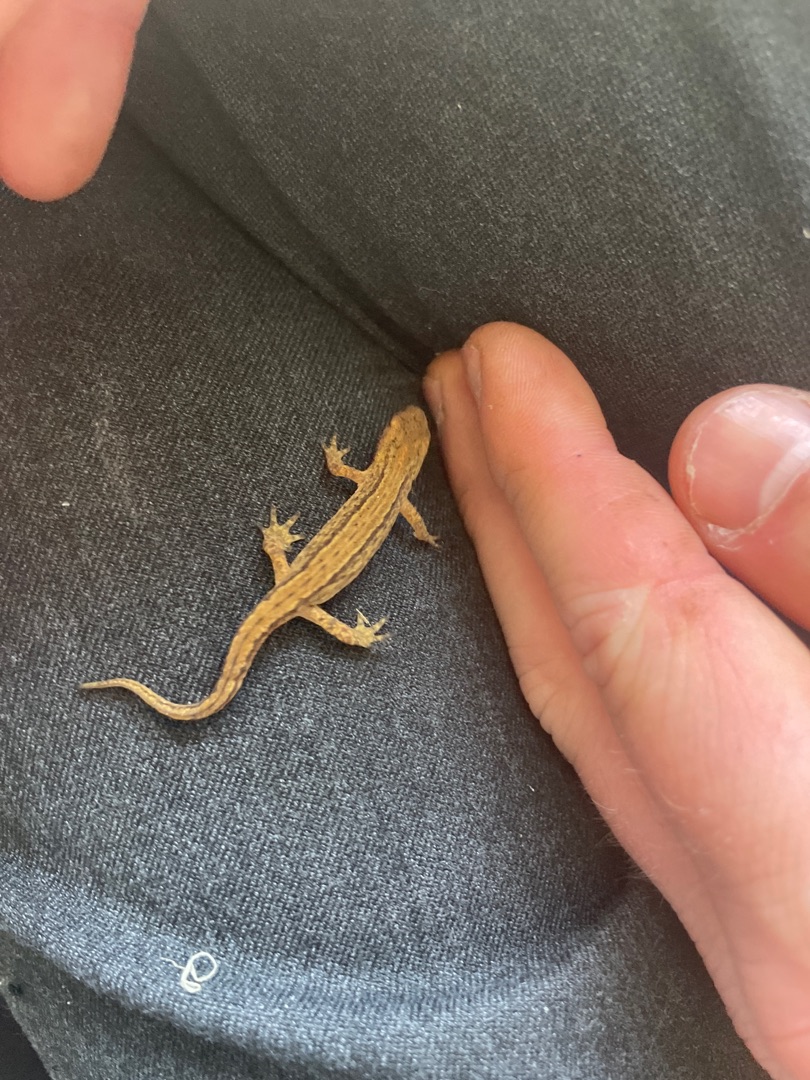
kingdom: Animalia
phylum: Chordata
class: Amphibia
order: Caudata
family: Salamandridae
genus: Lissotriton
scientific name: Lissotriton vulgaris
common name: Lille vandsalamander
